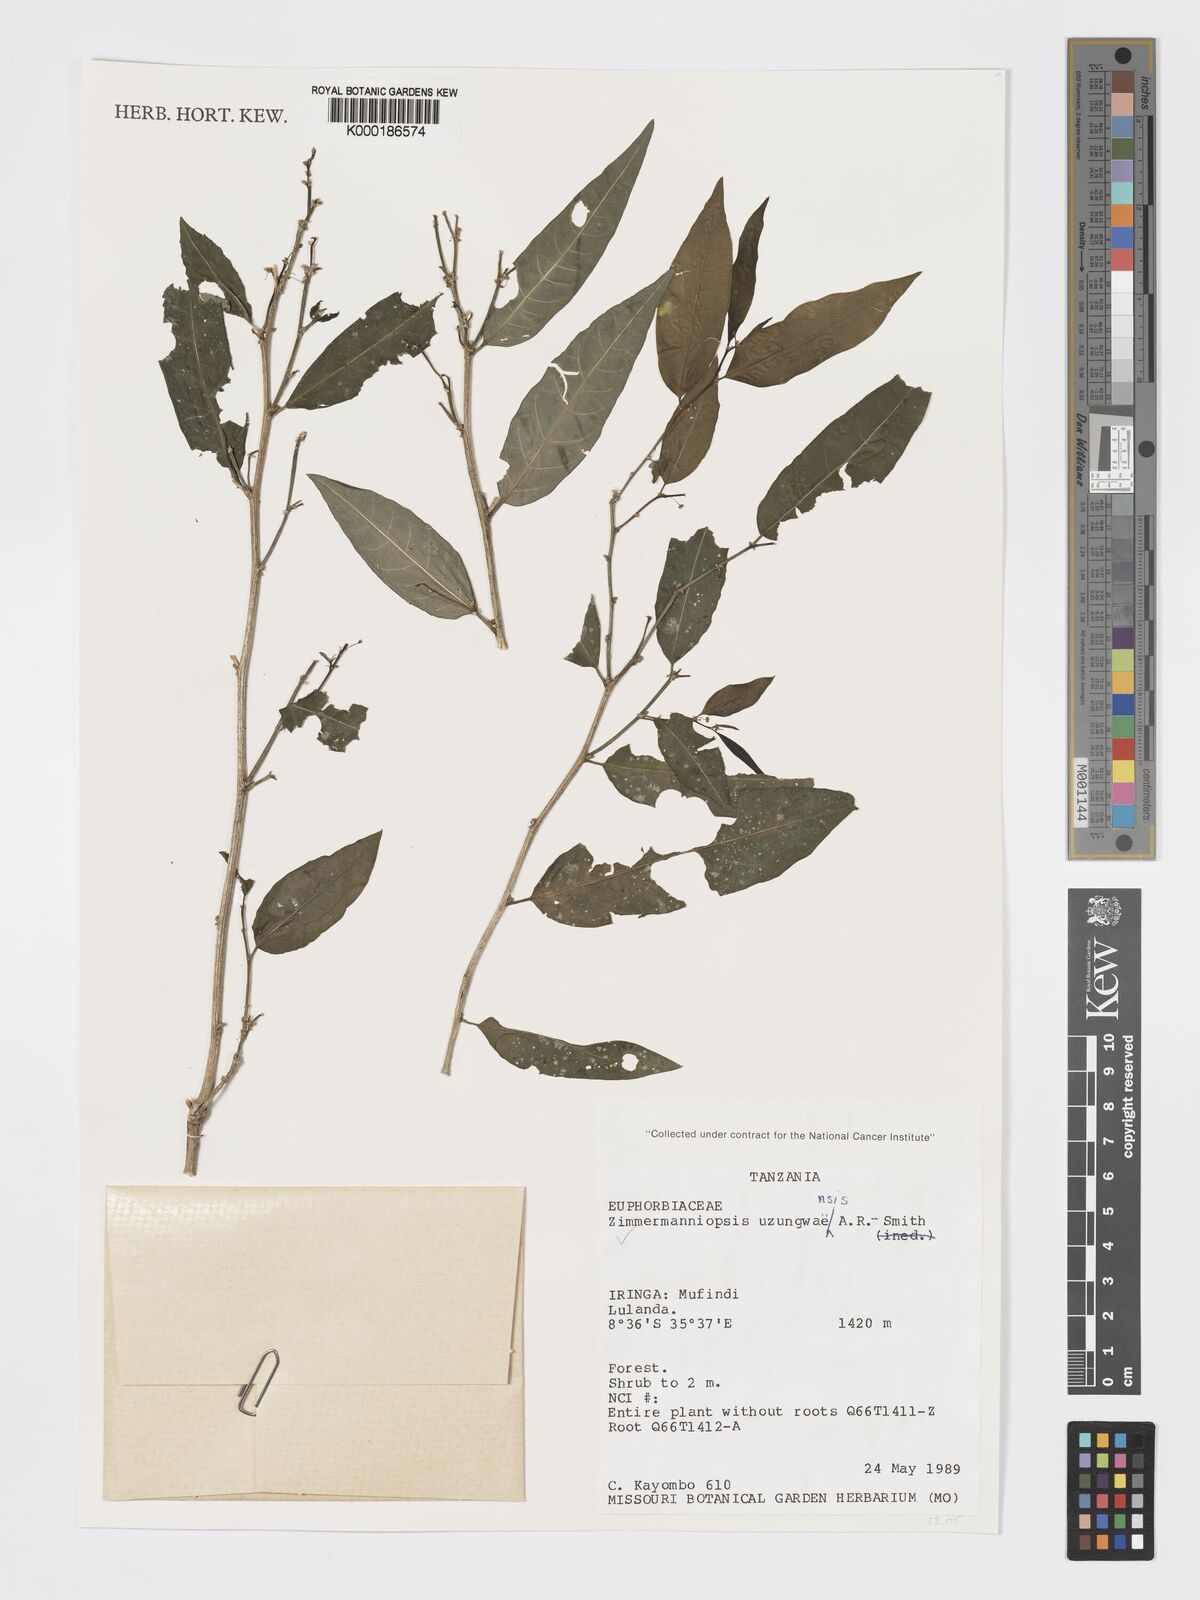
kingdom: Plantae
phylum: Tracheophyta
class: Magnoliopsida
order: Malpighiales
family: Phyllanthaceae
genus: Meineckia
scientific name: Meineckia uzungwaensis
